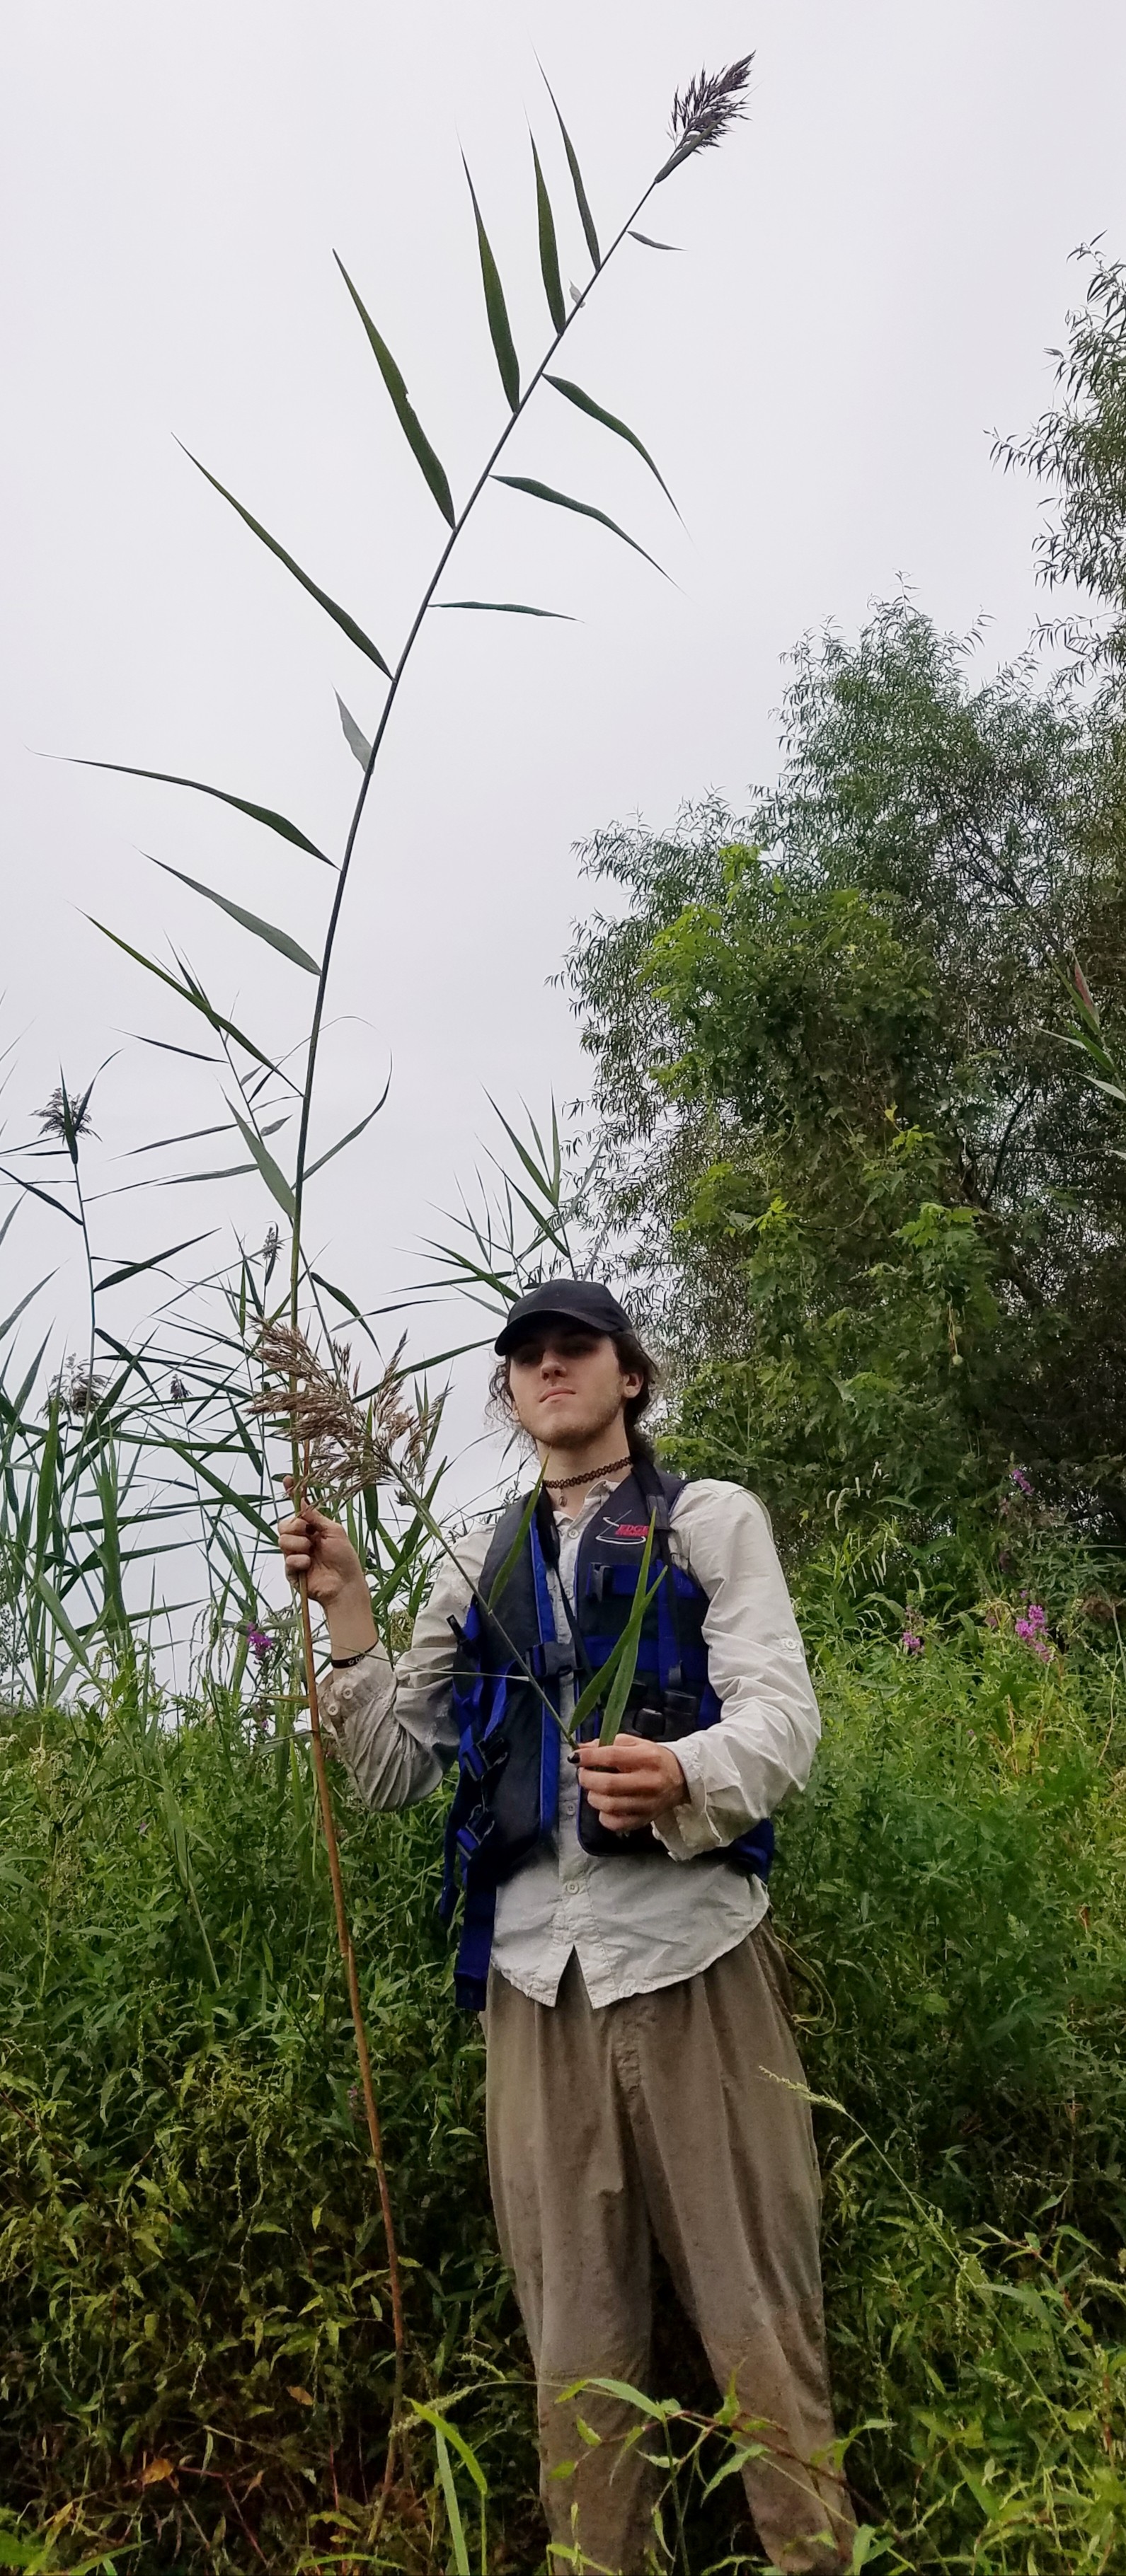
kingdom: Plantae
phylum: Tracheophyta
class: Liliopsida
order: Poales
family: Poaceae
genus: Phragmites
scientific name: Phragmites australis
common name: Reed
